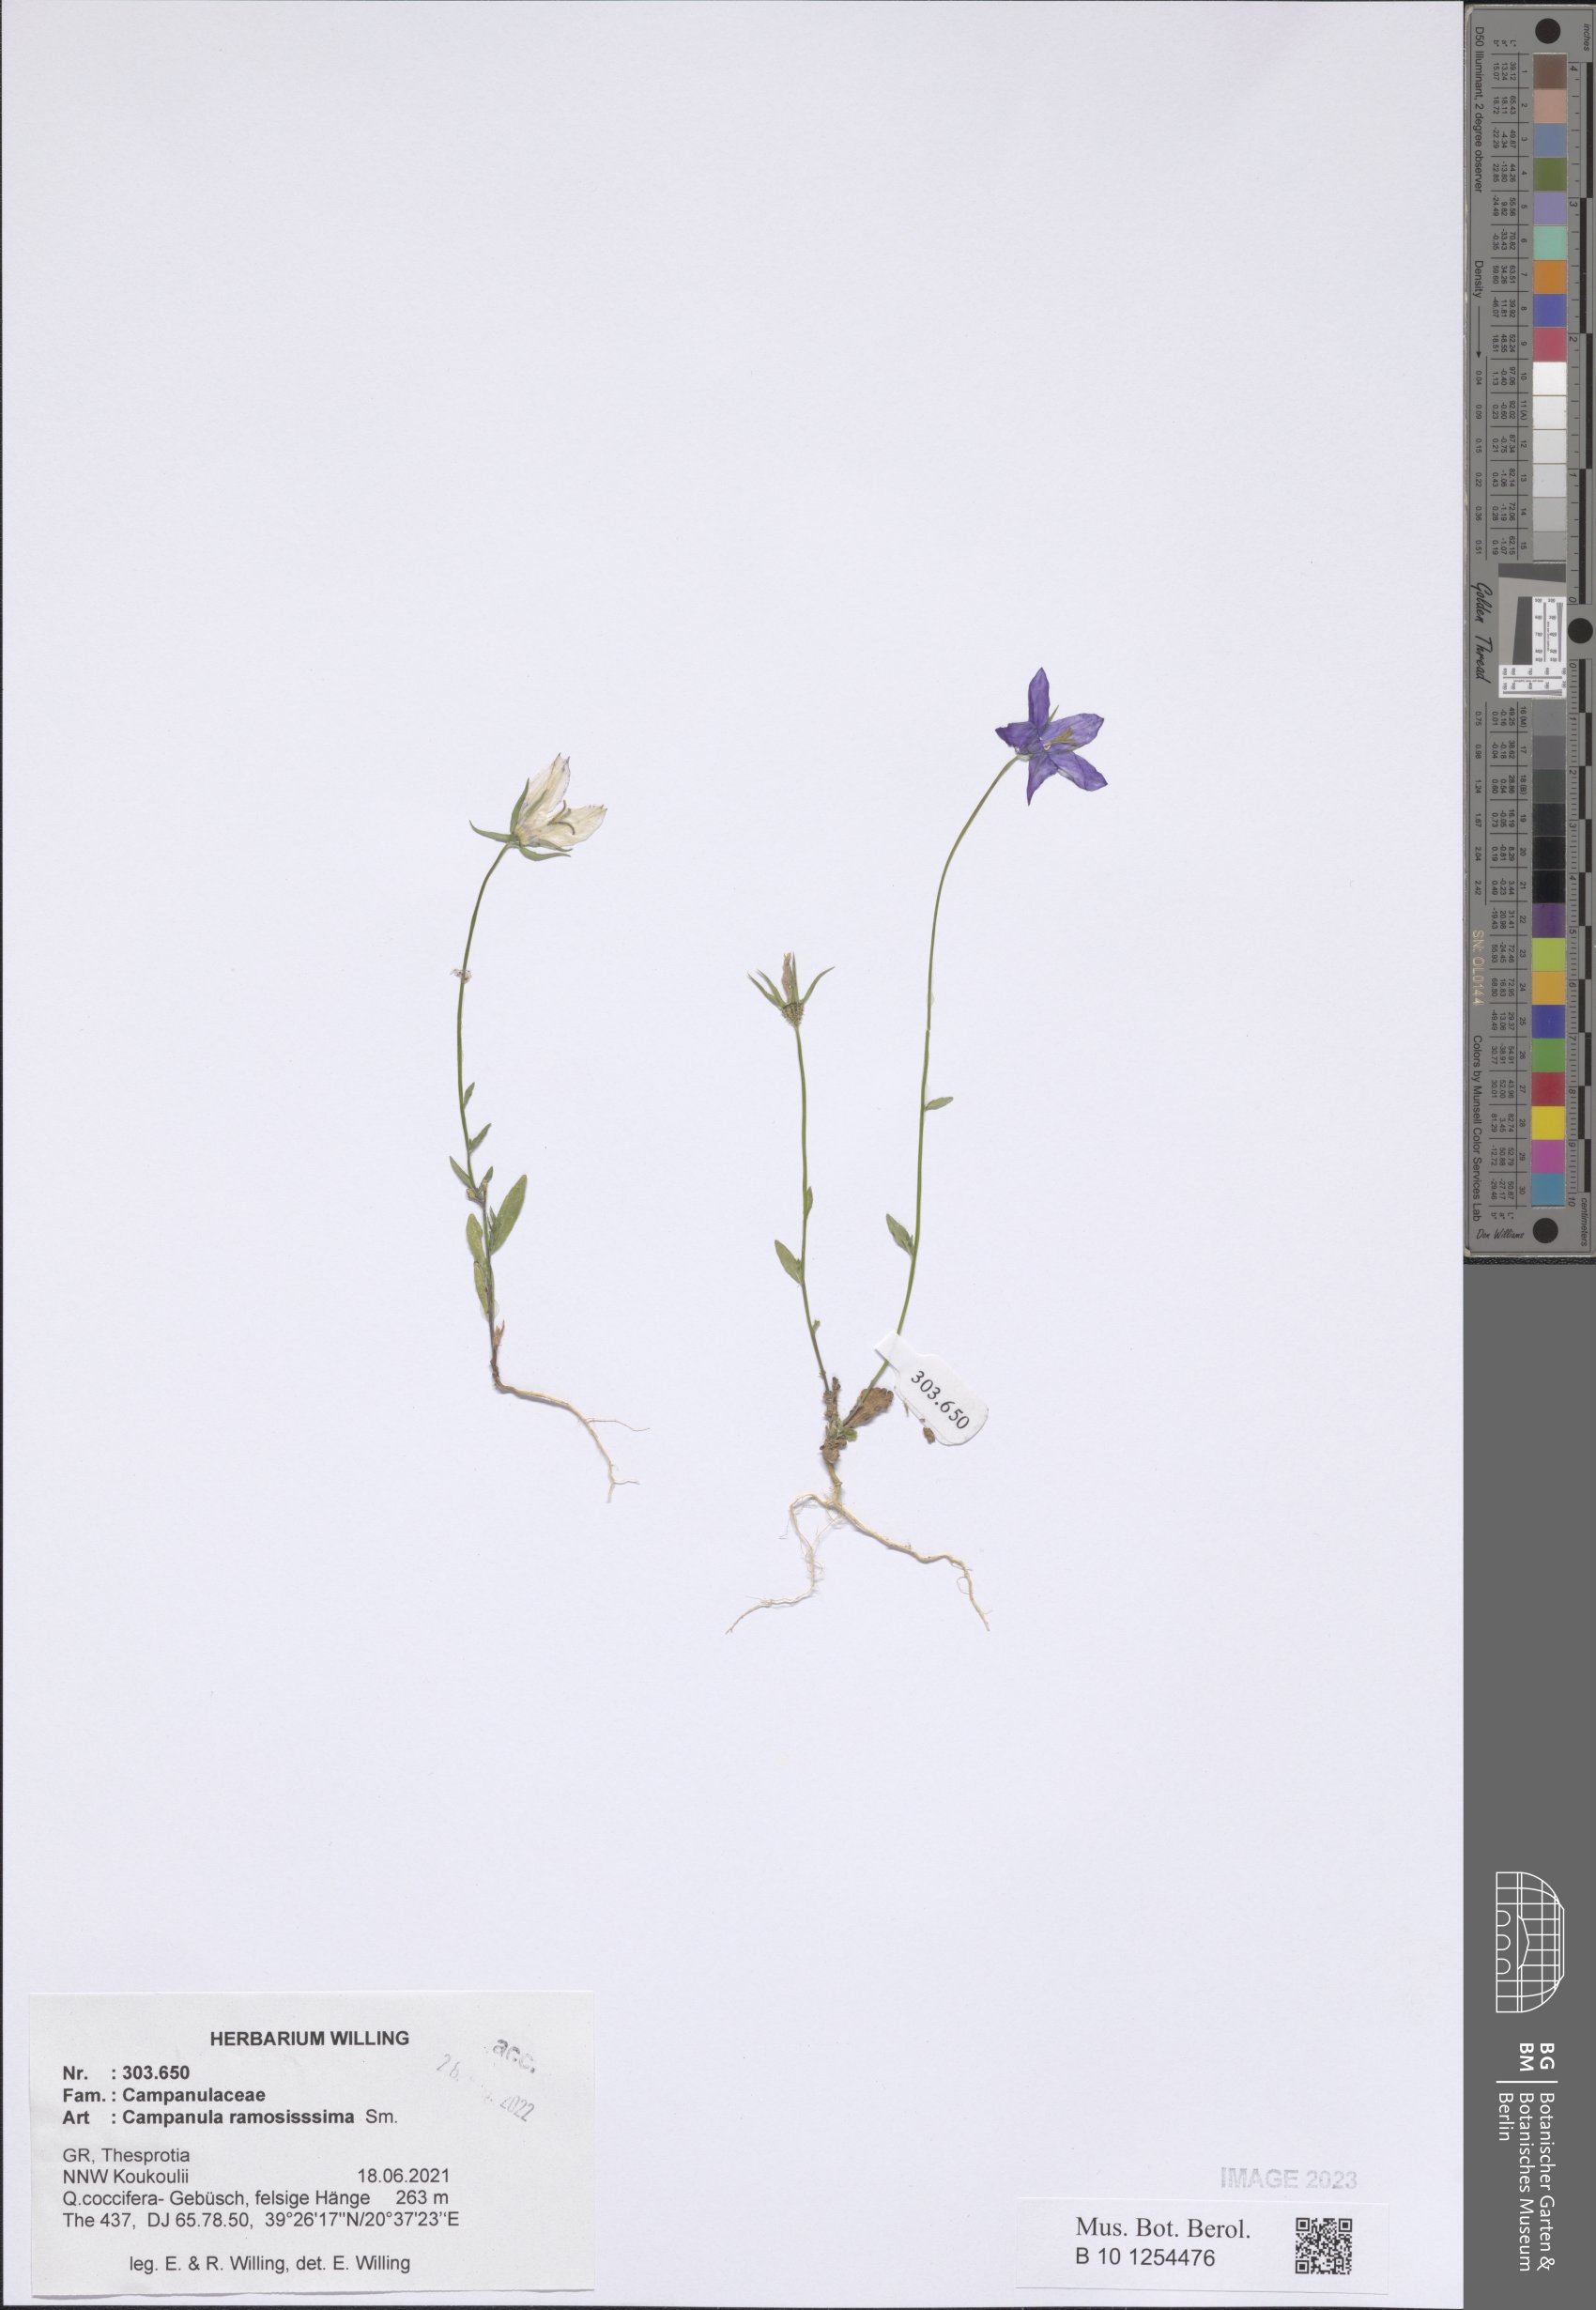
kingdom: Plantae
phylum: Tracheophyta
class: Magnoliopsida
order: Asterales
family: Campanulaceae
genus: Campanula
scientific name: Campanula ramosissima
